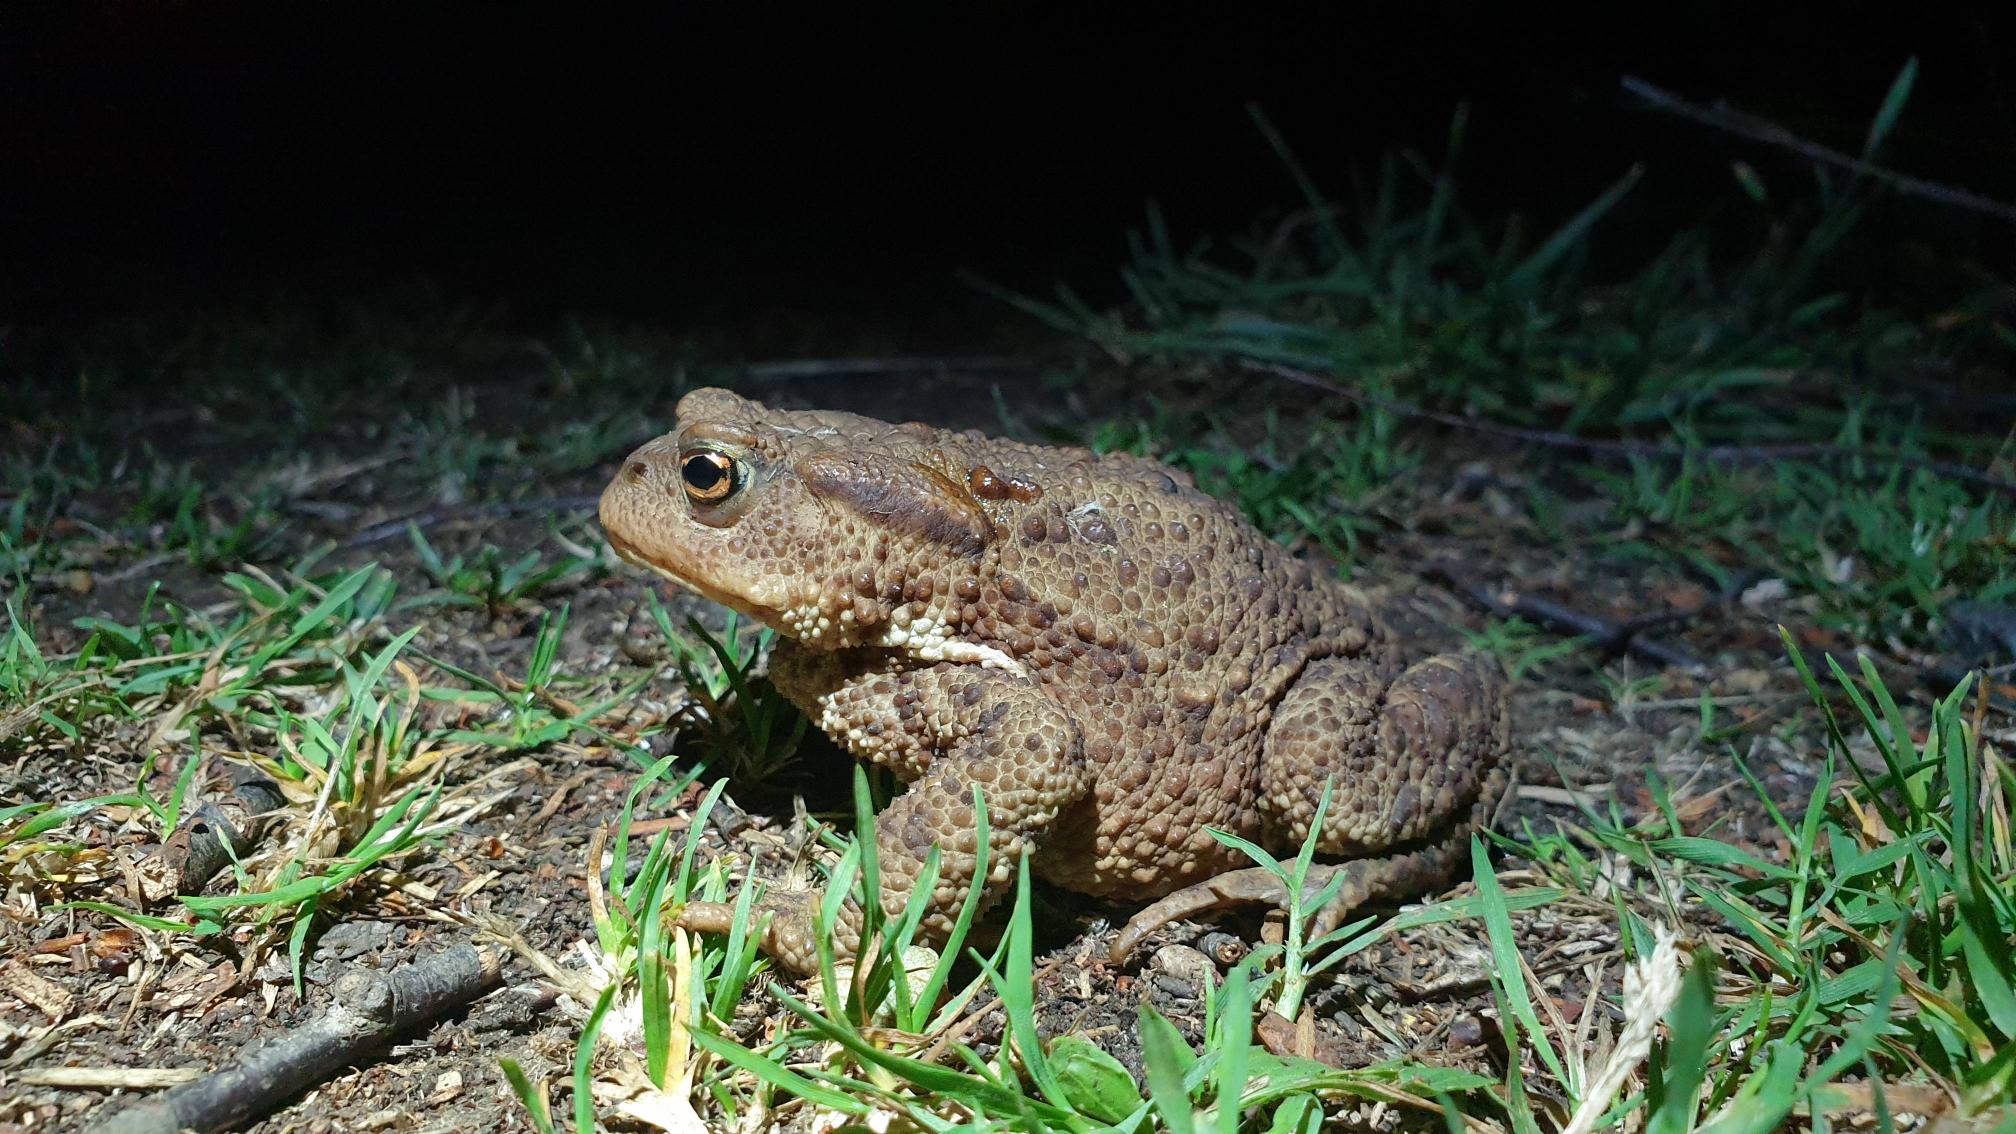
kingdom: Animalia
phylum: Chordata
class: Amphibia
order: Anura
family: Bufonidae
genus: Bufo
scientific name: Bufo bufo
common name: Skrubtudse
